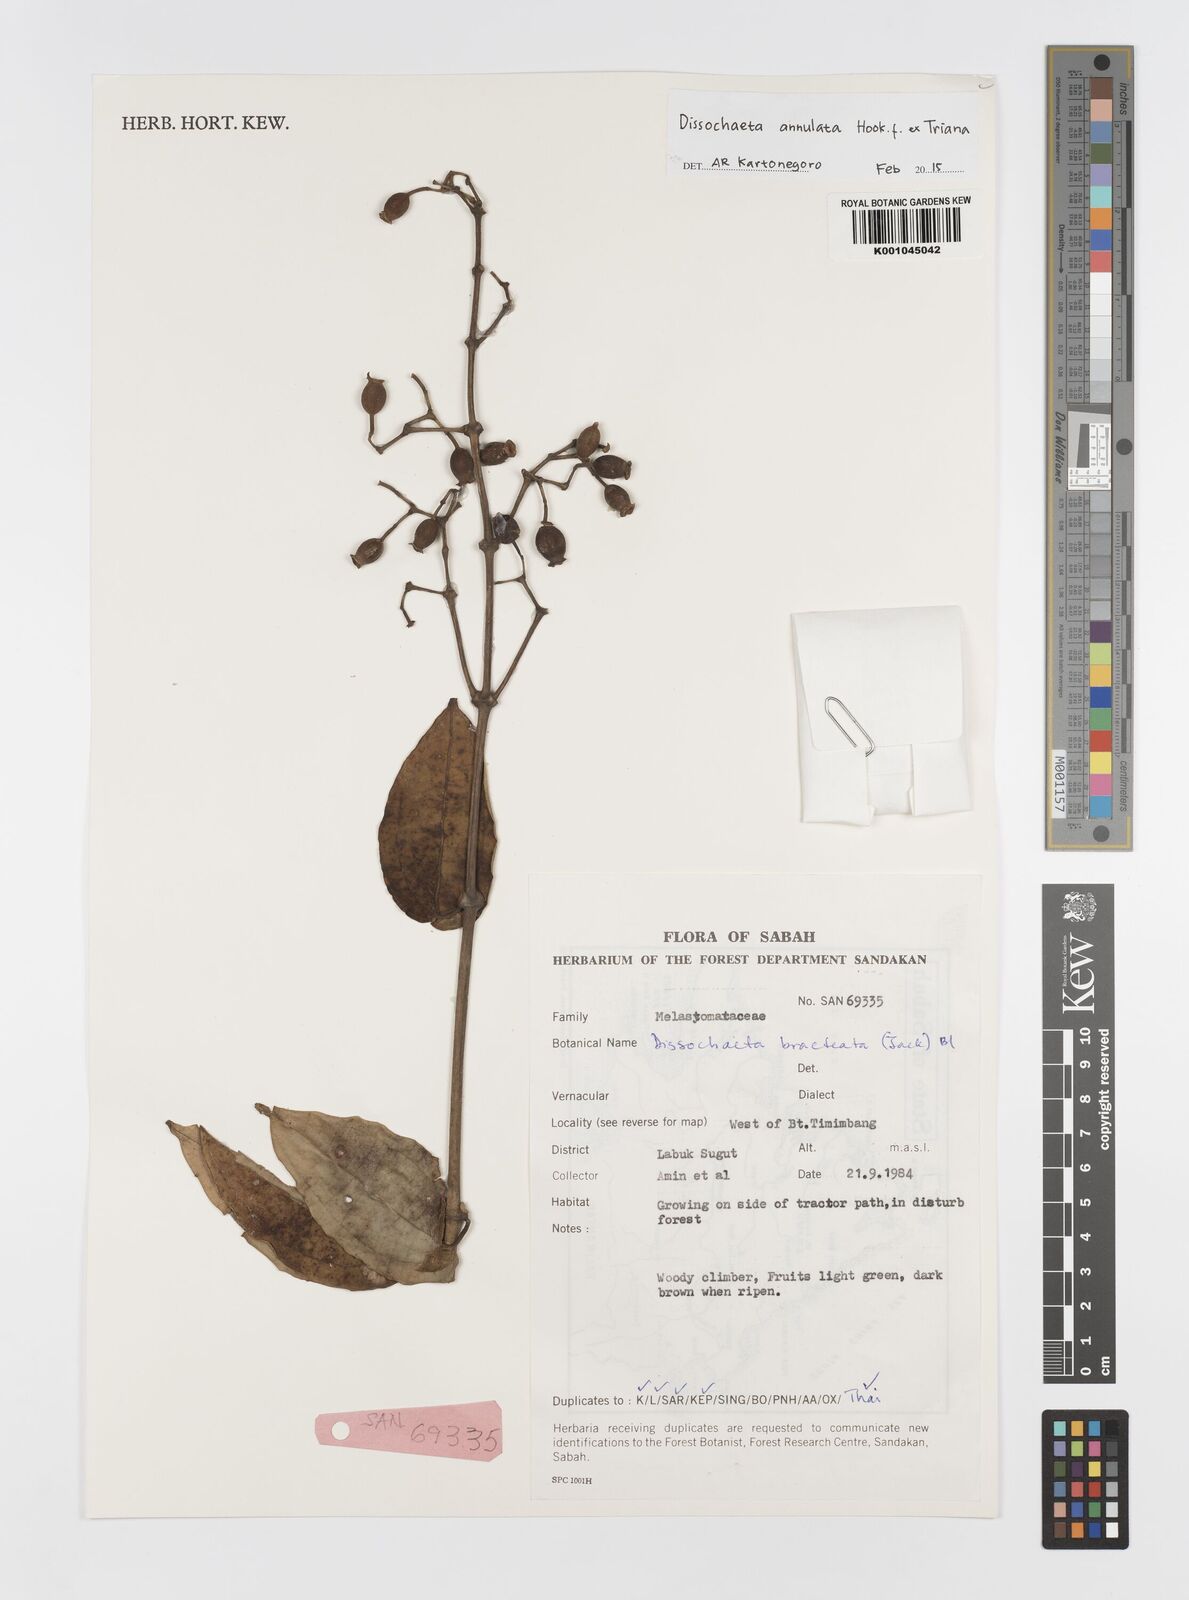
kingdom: Plantae
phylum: Tracheophyta
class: Magnoliopsida
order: Myrtales
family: Melastomataceae
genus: Dissochaeta
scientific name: Dissochaeta annulata
